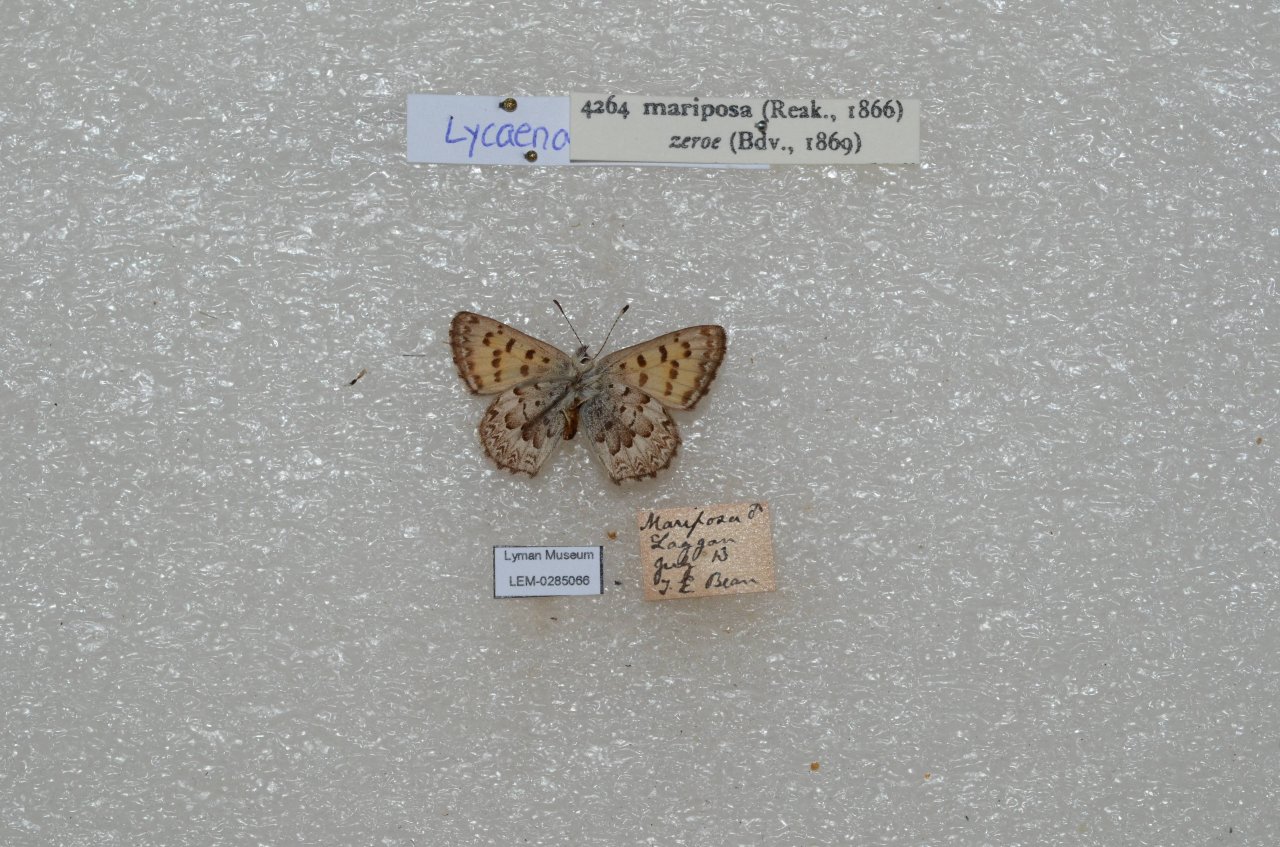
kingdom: Animalia
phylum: Arthropoda
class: Insecta
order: Lepidoptera
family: Lycaenidae
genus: Lycaena
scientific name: Lycaena mariposa
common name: Mariposa Copper
